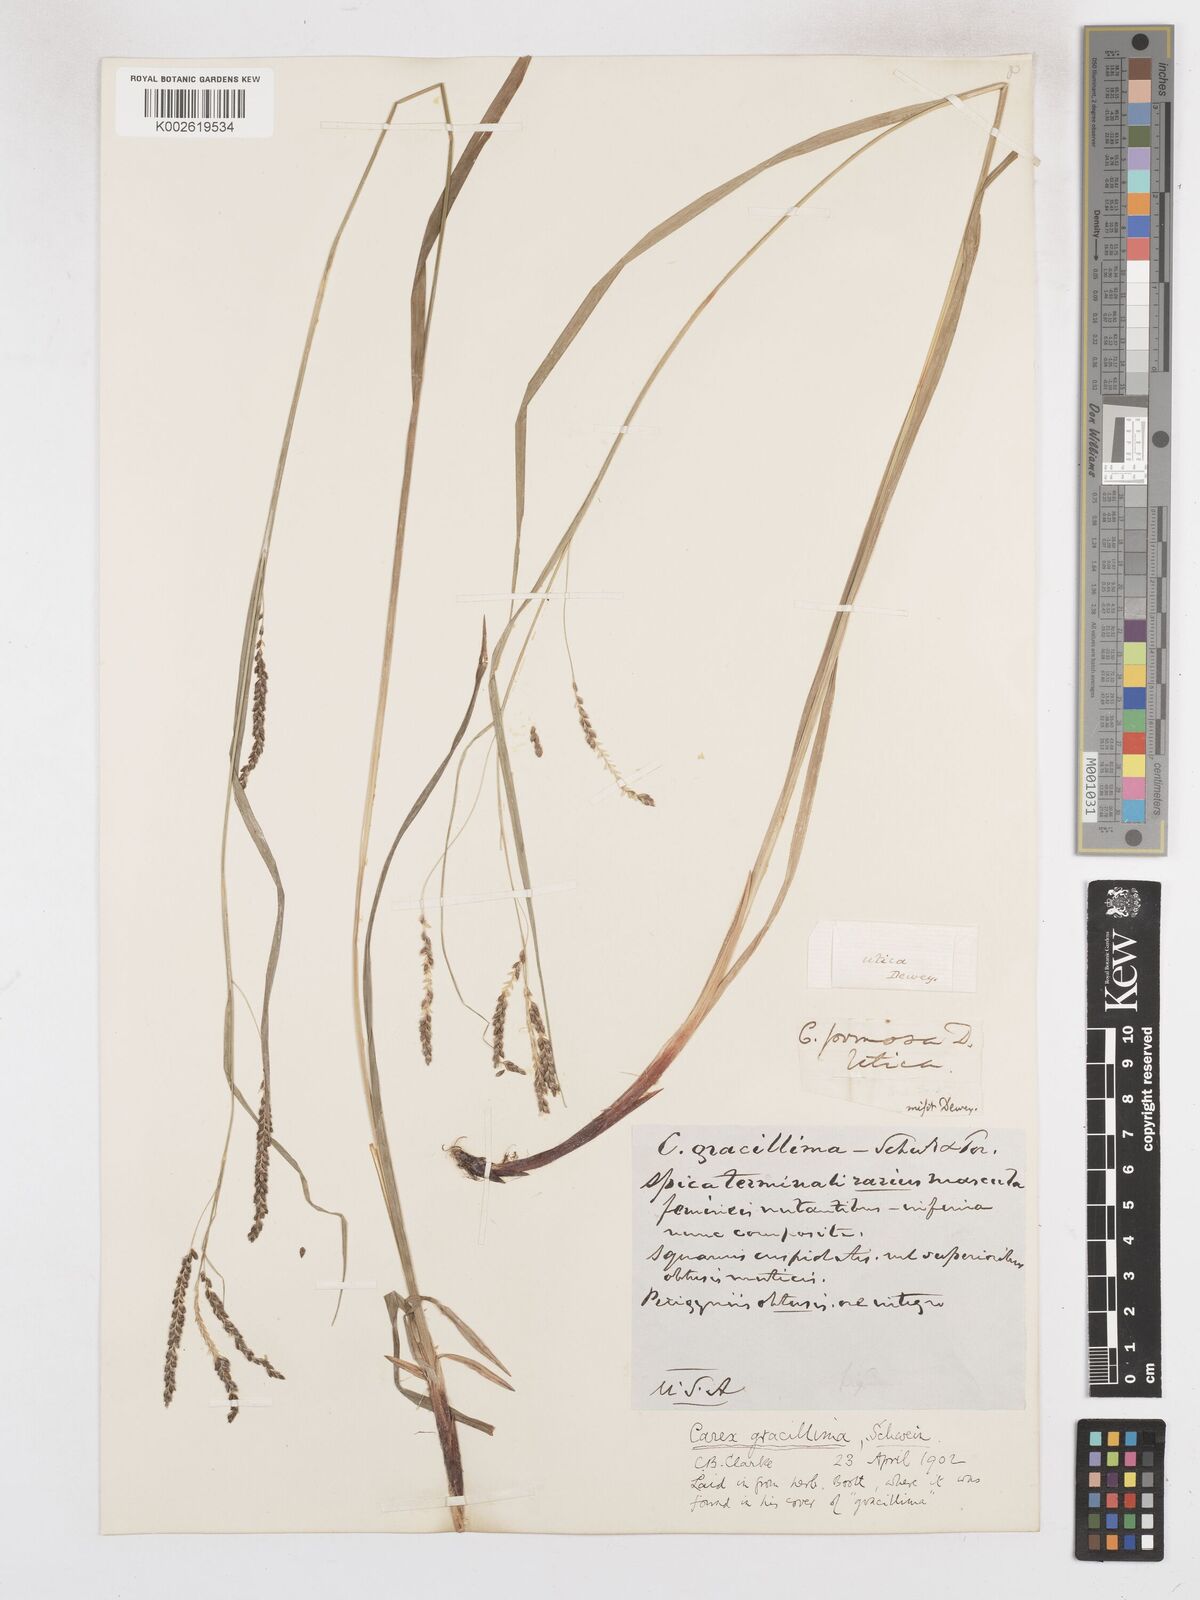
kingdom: Plantae
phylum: Tracheophyta
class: Liliopsida
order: Poales
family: Cyperaceae
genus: Carex
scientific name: Carex gracillima
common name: Graceful sedge
